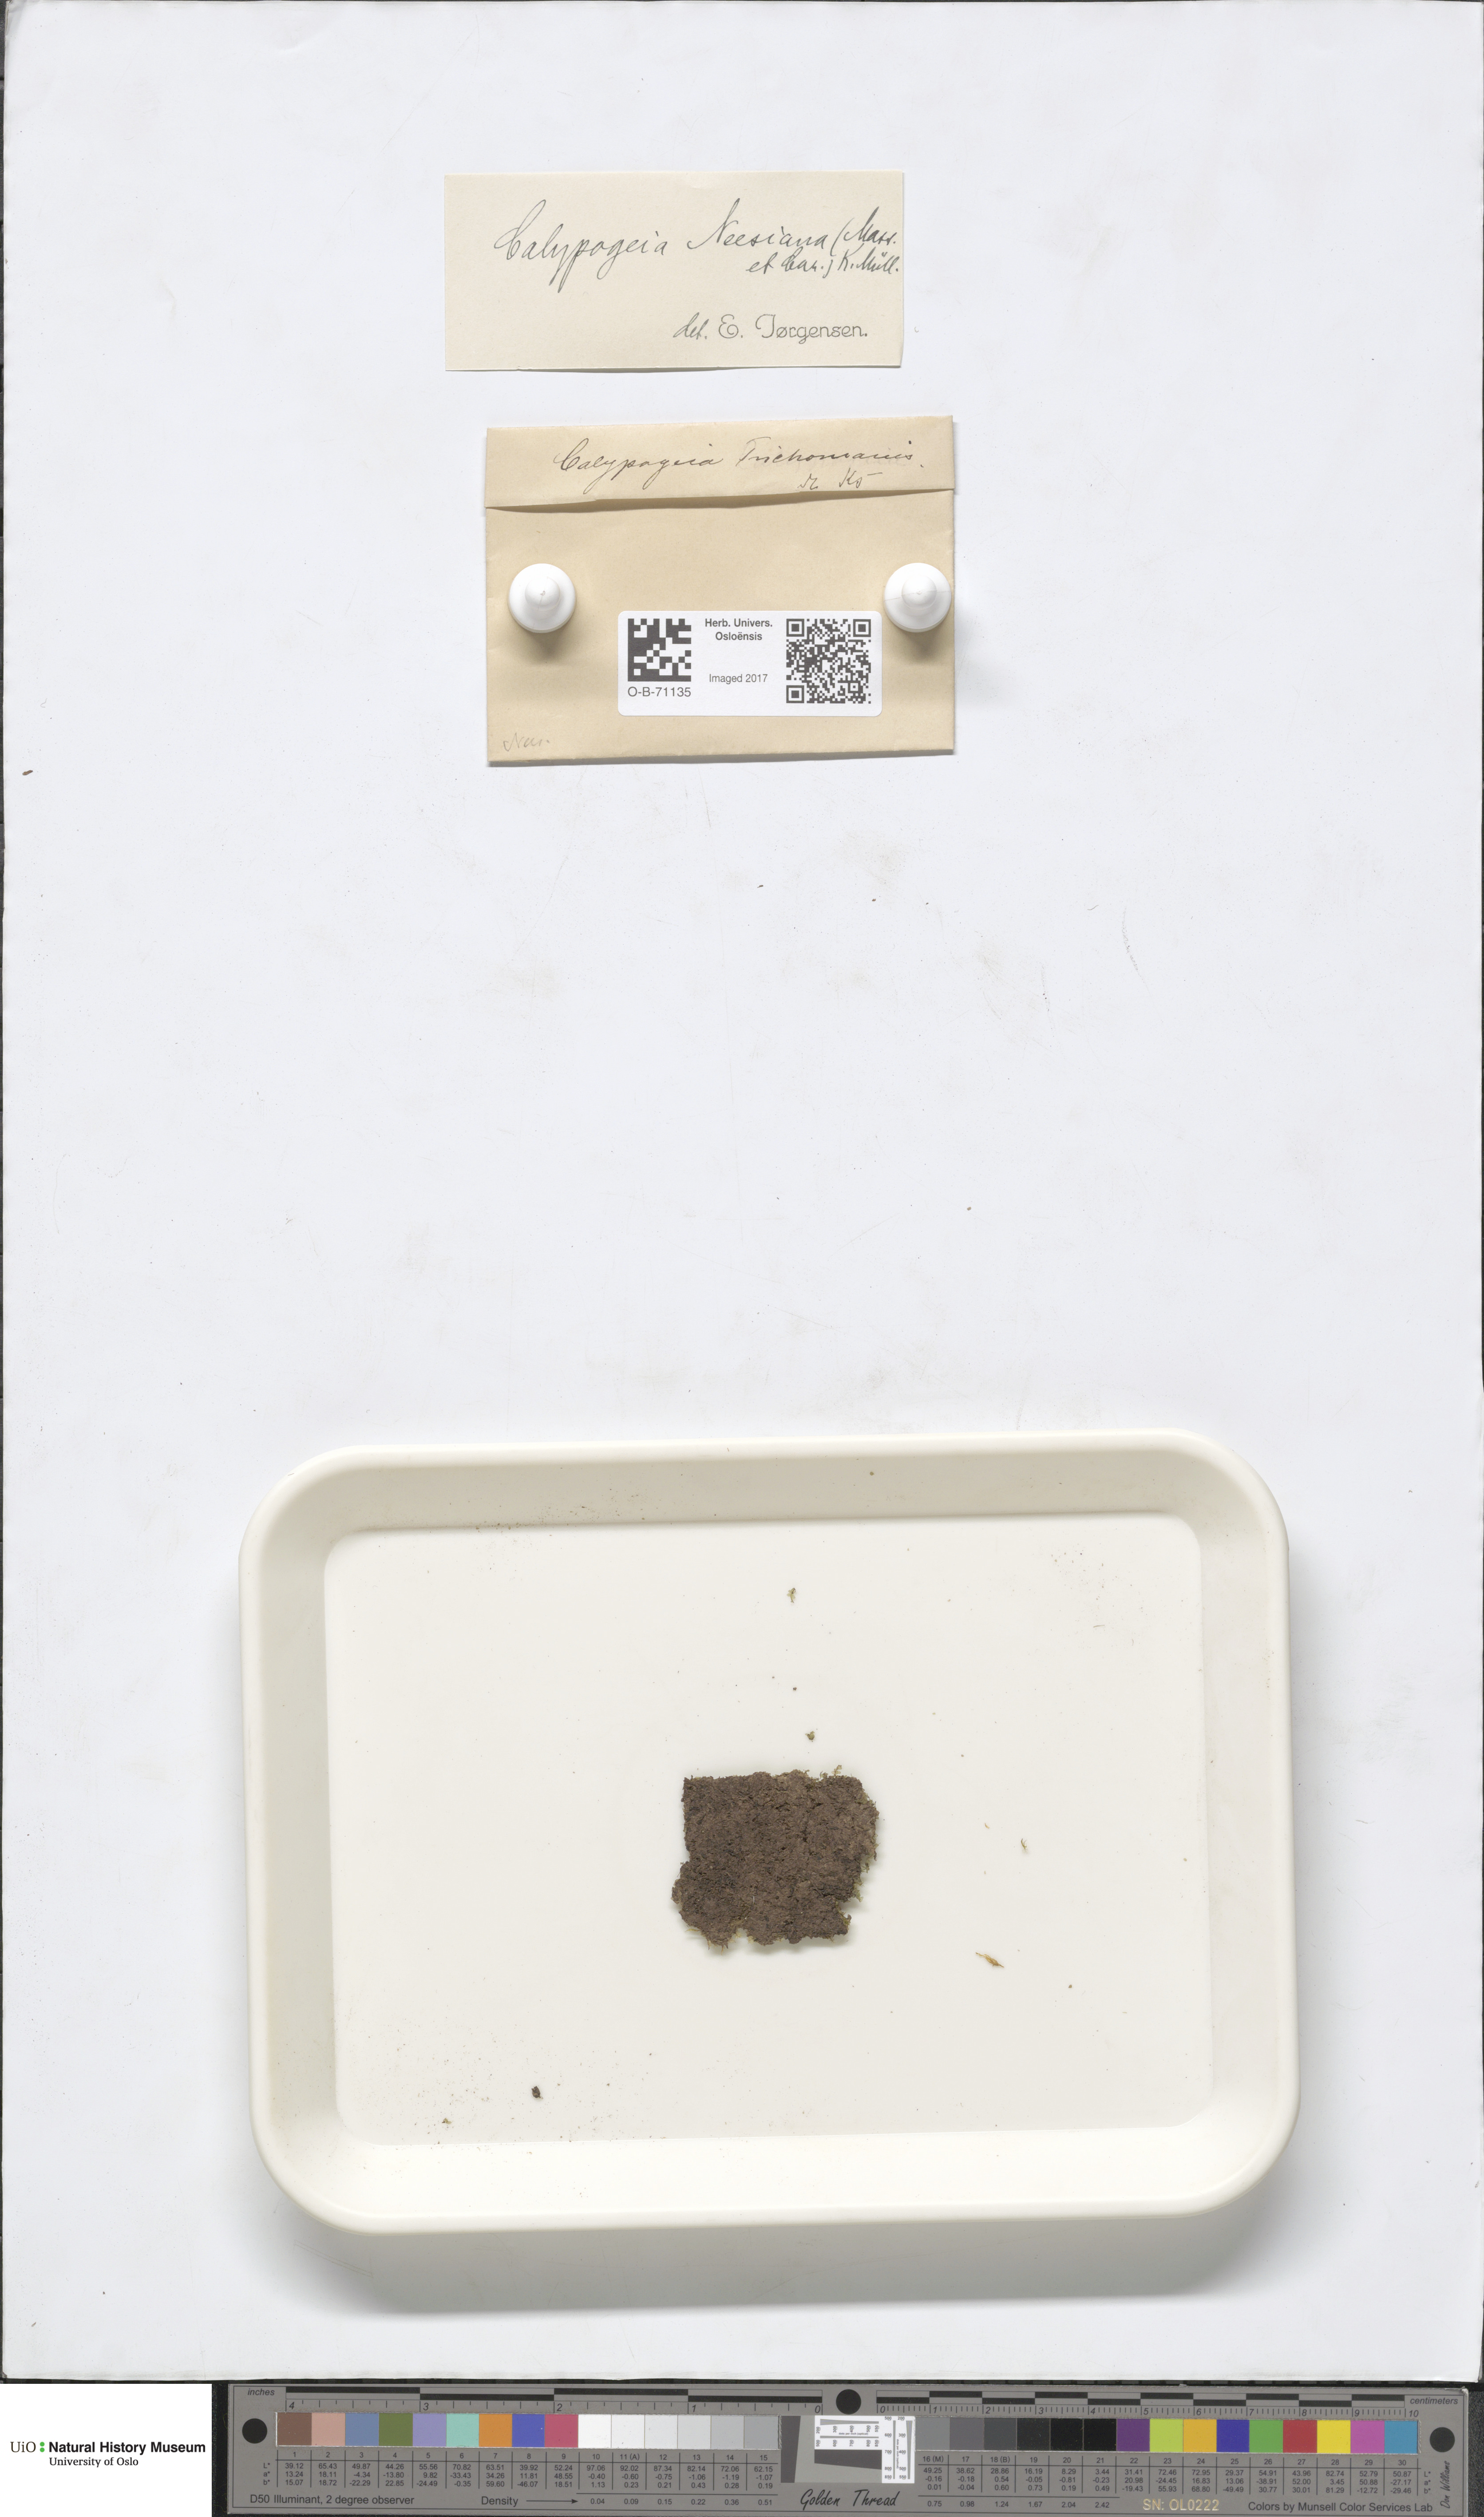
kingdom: Plantae
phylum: Marchantiophyta
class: Jungermanniopsida
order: Jungermanniales
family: Calypogeiaceae
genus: Calypogeia
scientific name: Calypogeia neesiana
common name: Nees  pouchwort
